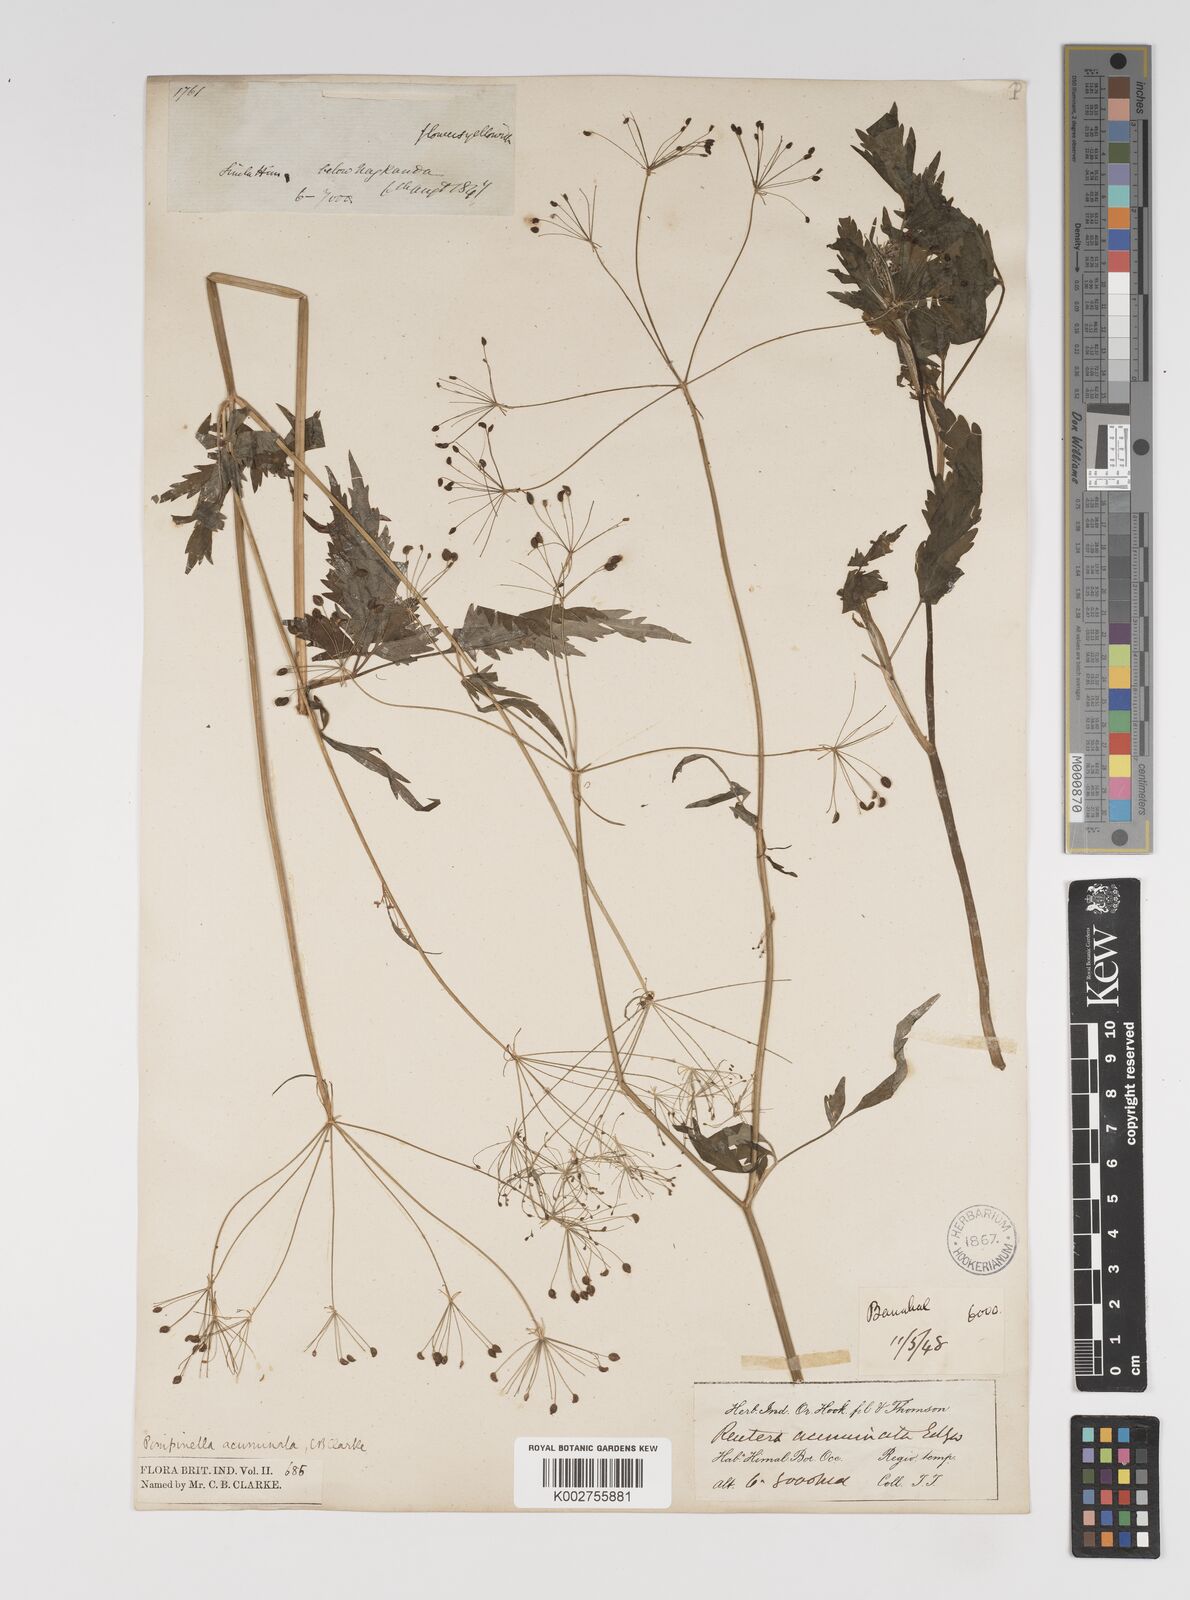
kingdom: Plantae
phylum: Tracheophyta
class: Magnoliopsida
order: Apiales
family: Apiaceae
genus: Pimpinella
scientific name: Pimpinella acuminata
